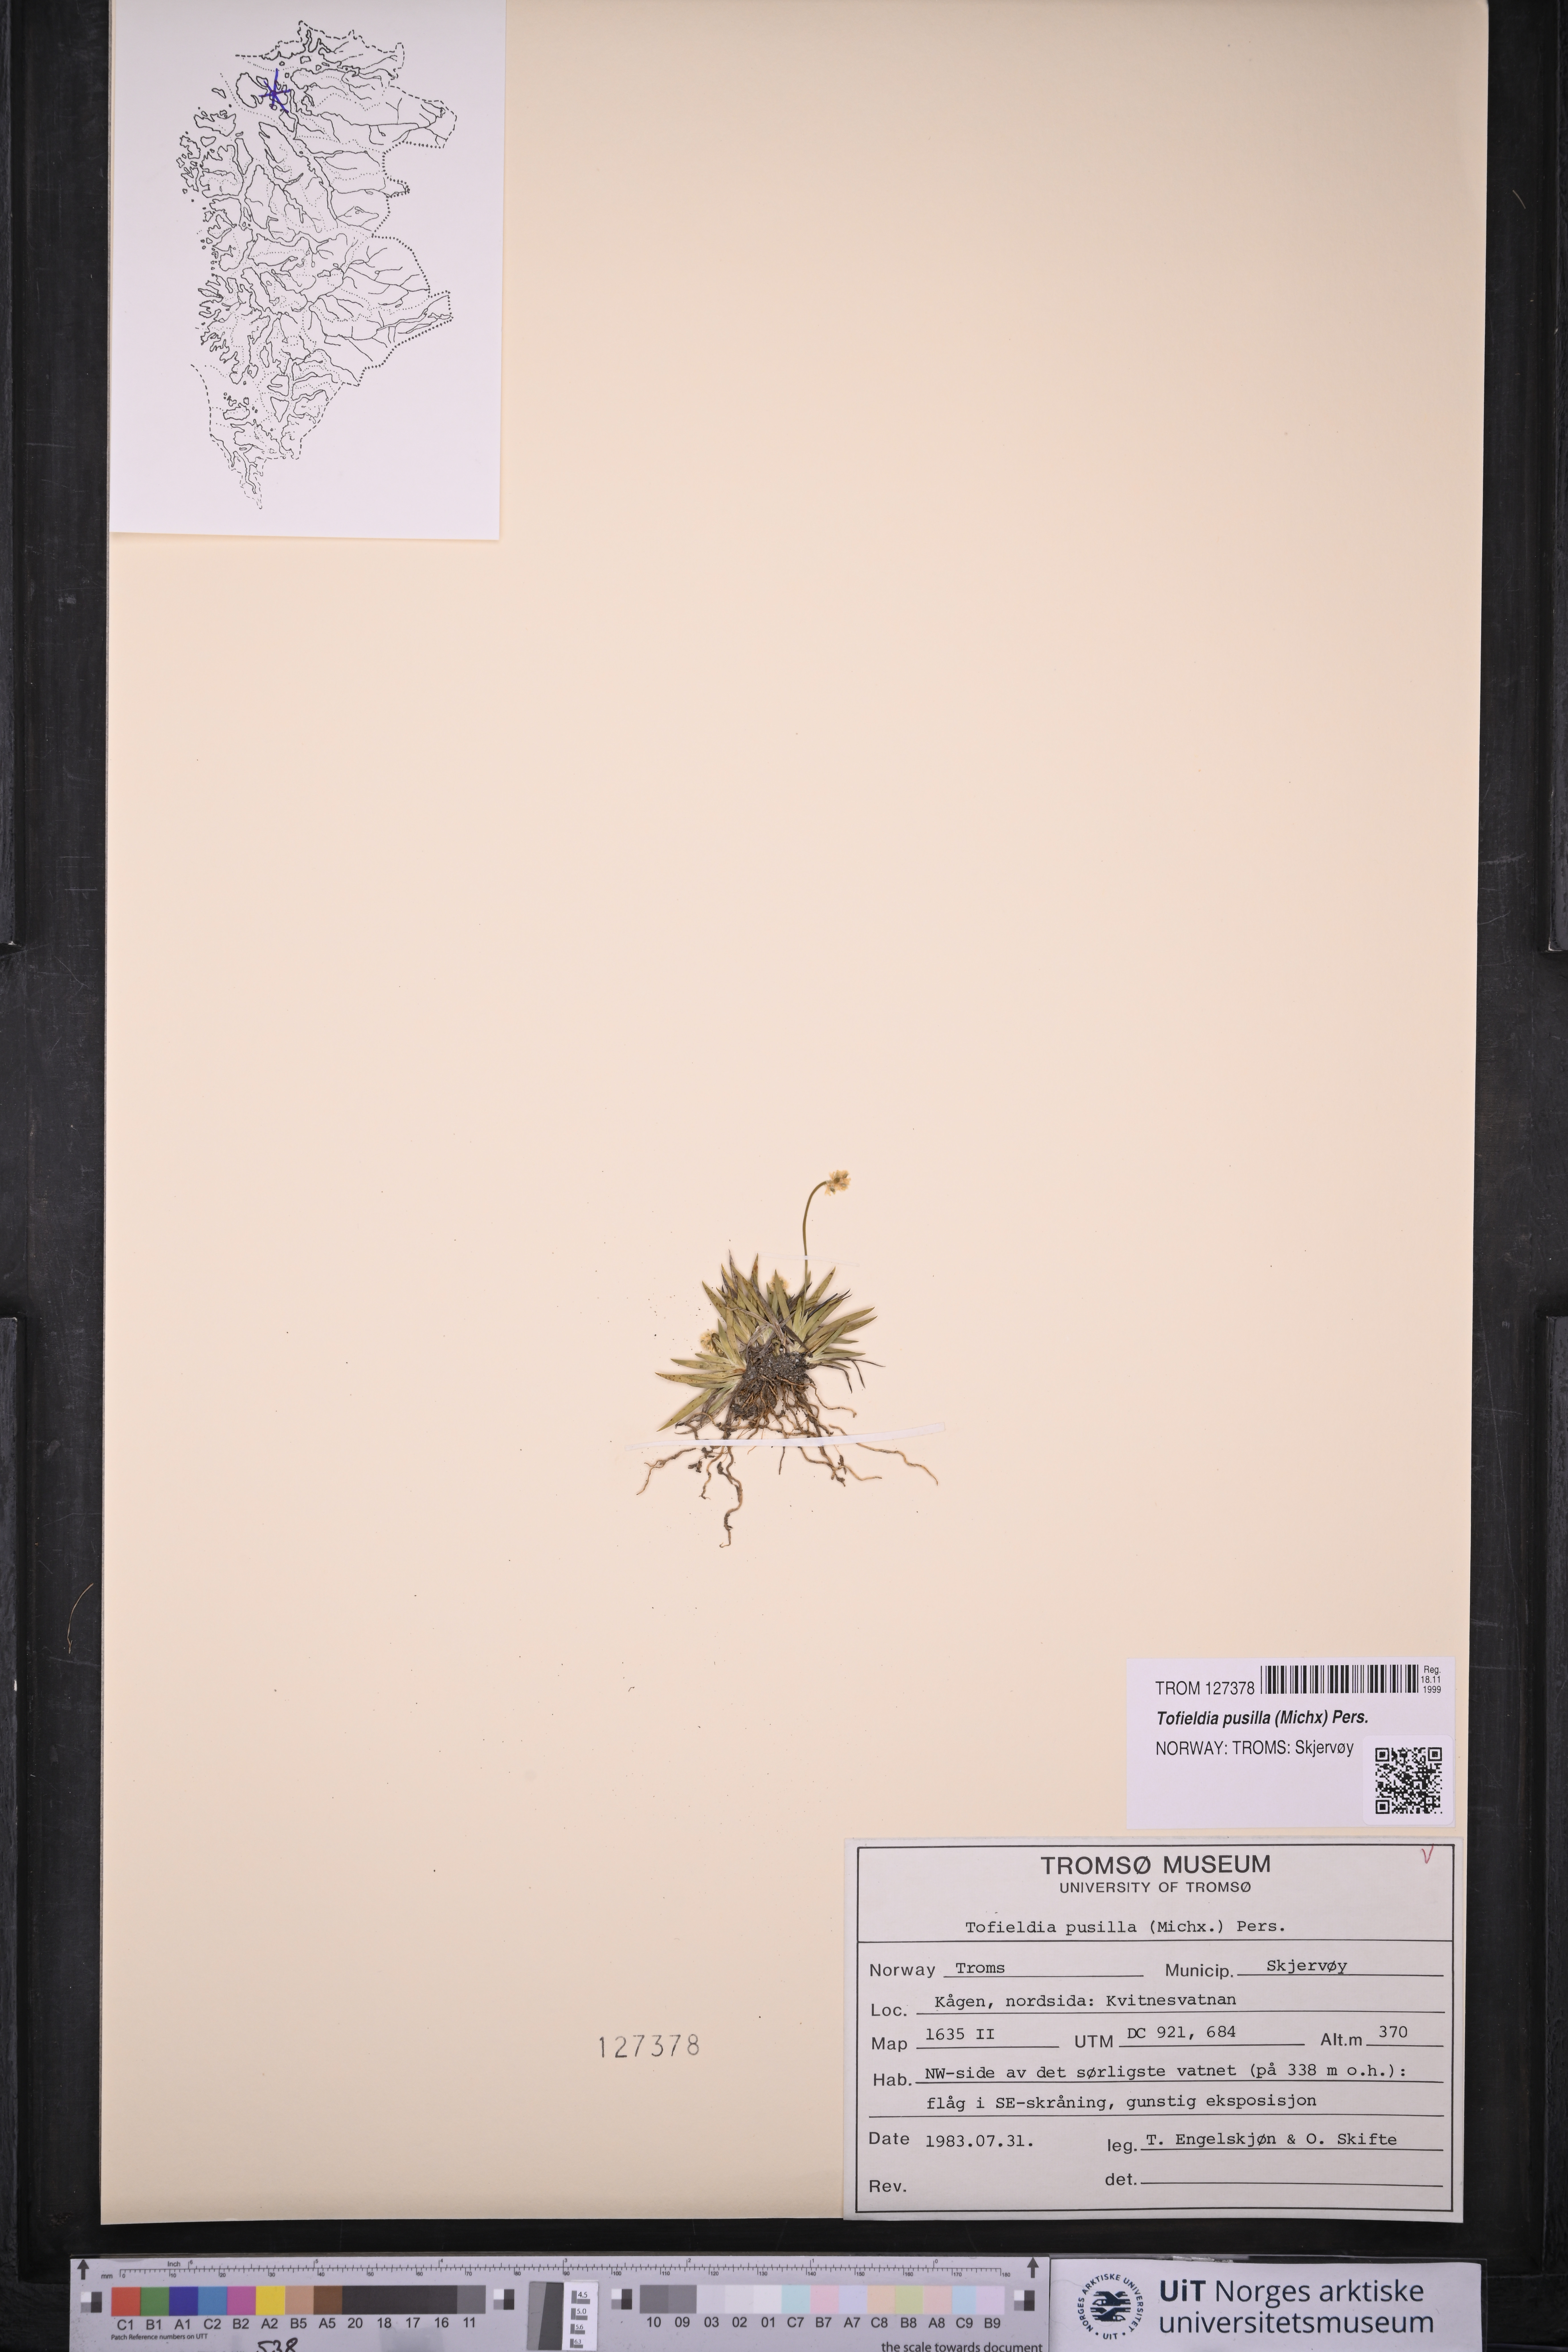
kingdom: Plantae
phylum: Tracheophyta
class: Liliopsida
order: Alismatales
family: Tofieldiaceae
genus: Tofieldia
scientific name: Tofieldia pusilla
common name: Scottish false asphodel
